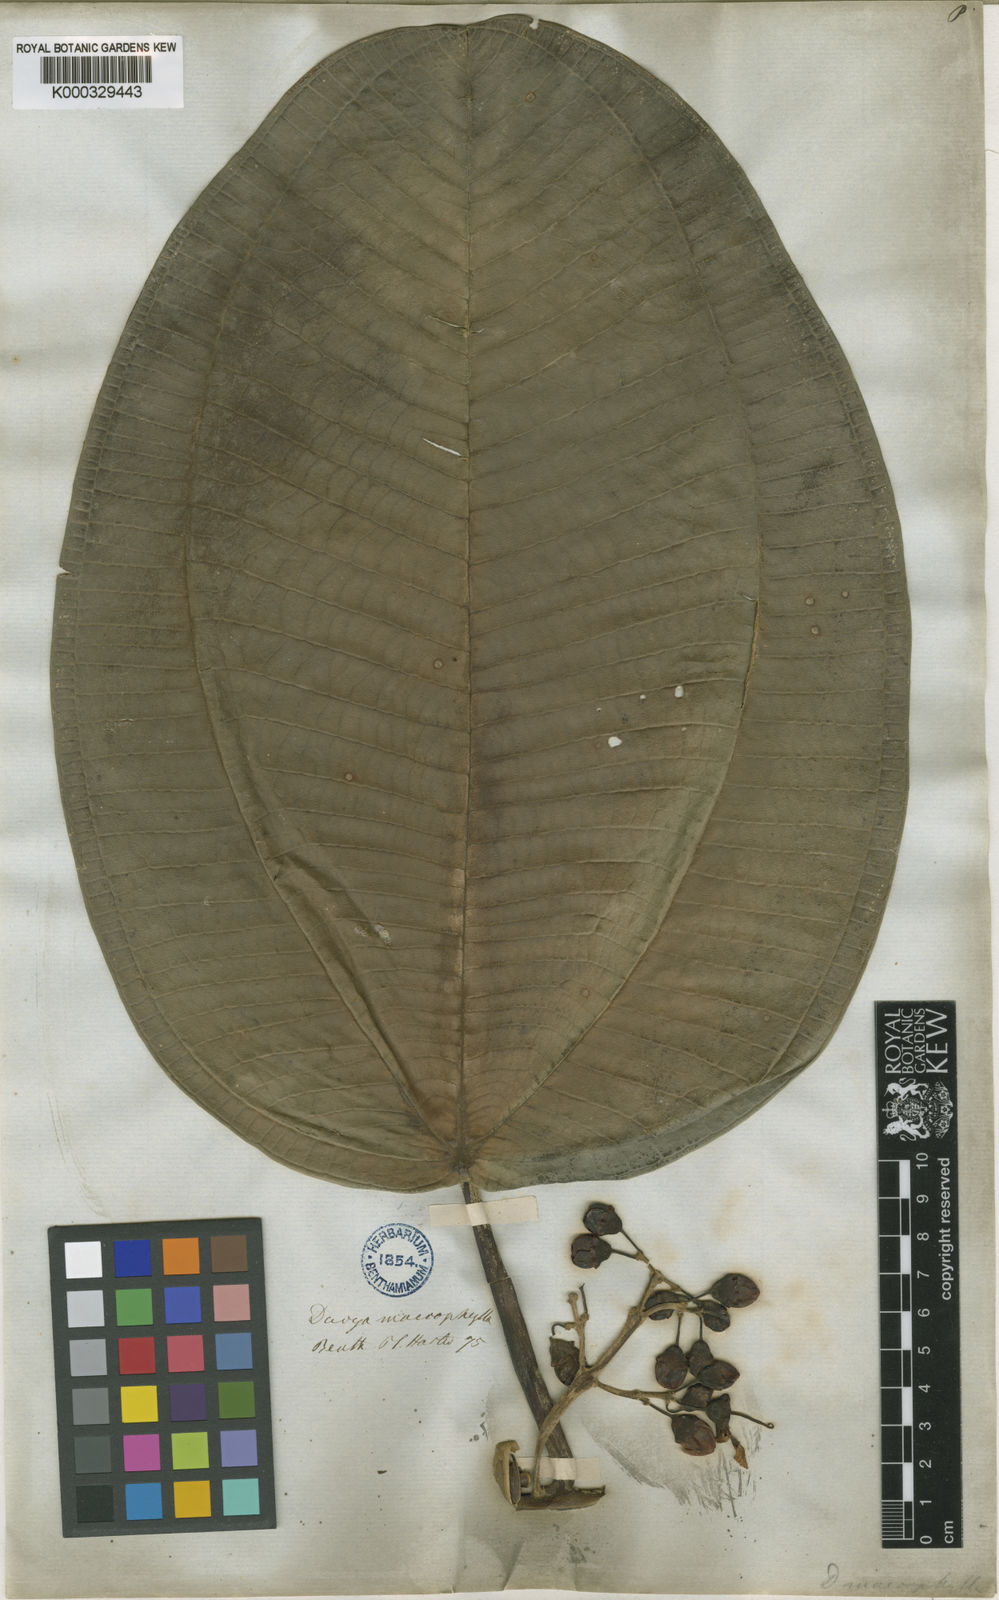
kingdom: Plantae
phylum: Tracheophyta
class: Magnoliopsida
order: Myrtales
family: Melastomataceae
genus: Meriania
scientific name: Meriania macrophylla
